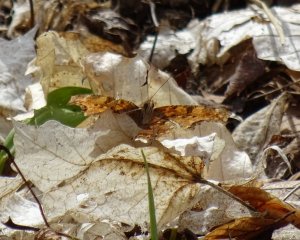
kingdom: Animalia
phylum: Arthropoda
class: Insecta
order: Lepidoptera
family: Nymphalidae
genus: Polygonia
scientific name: Polygonia
